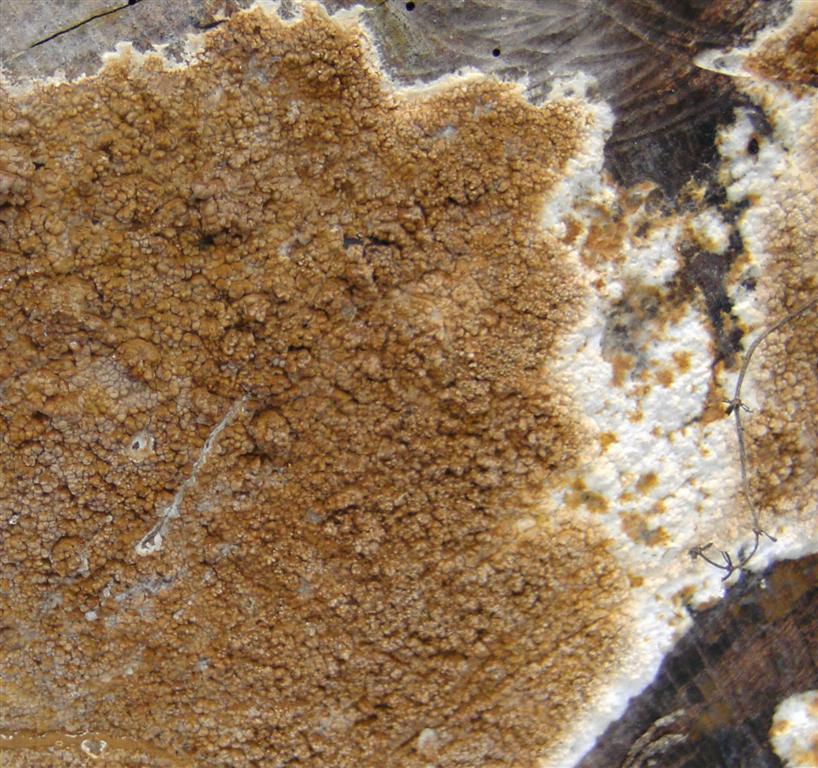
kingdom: Fungi
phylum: Basidiomycota
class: Agaricomycetes
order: Boletales
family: Coniophoraceae
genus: Coniophora
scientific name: Coniophora puteana
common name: gul tømmersvamp
